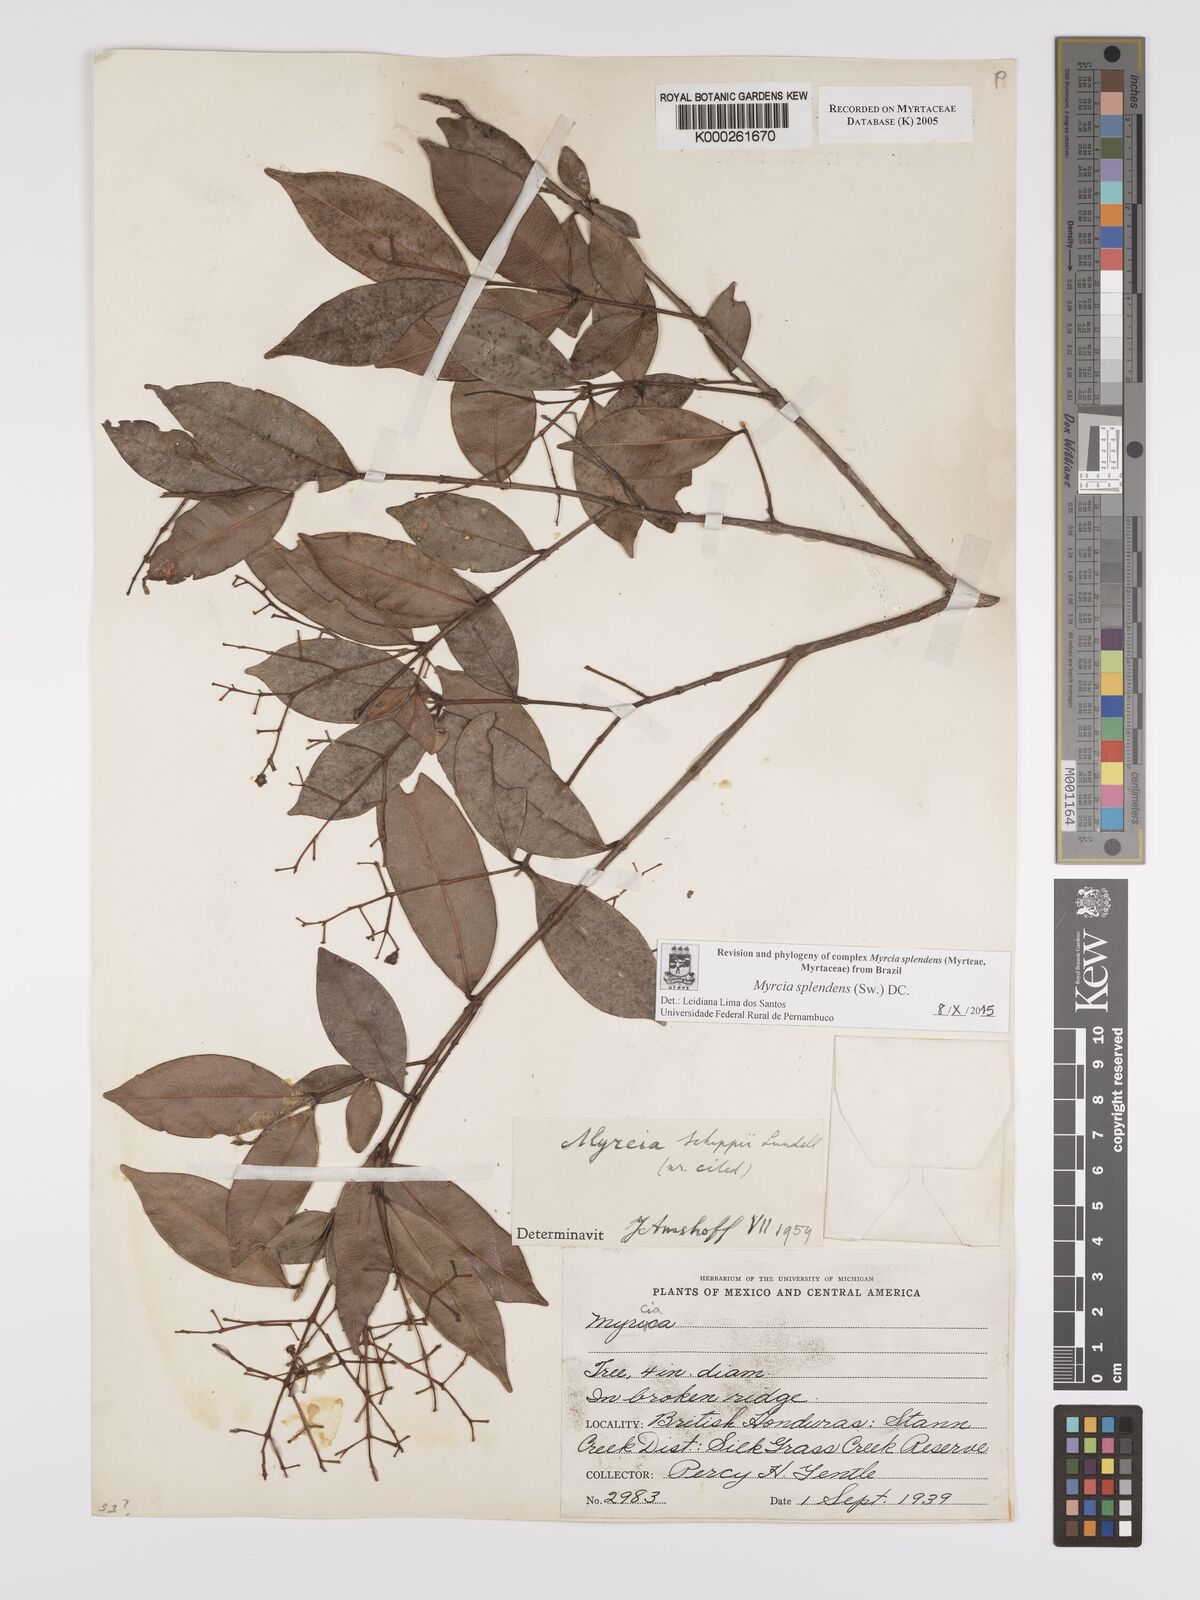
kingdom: Plantae
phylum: Tracheophyta
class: Magnoliopsida
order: Myrtales
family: Myrtaceae
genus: Myrcia
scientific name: Myrcia splendens
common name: Surinam cherry
